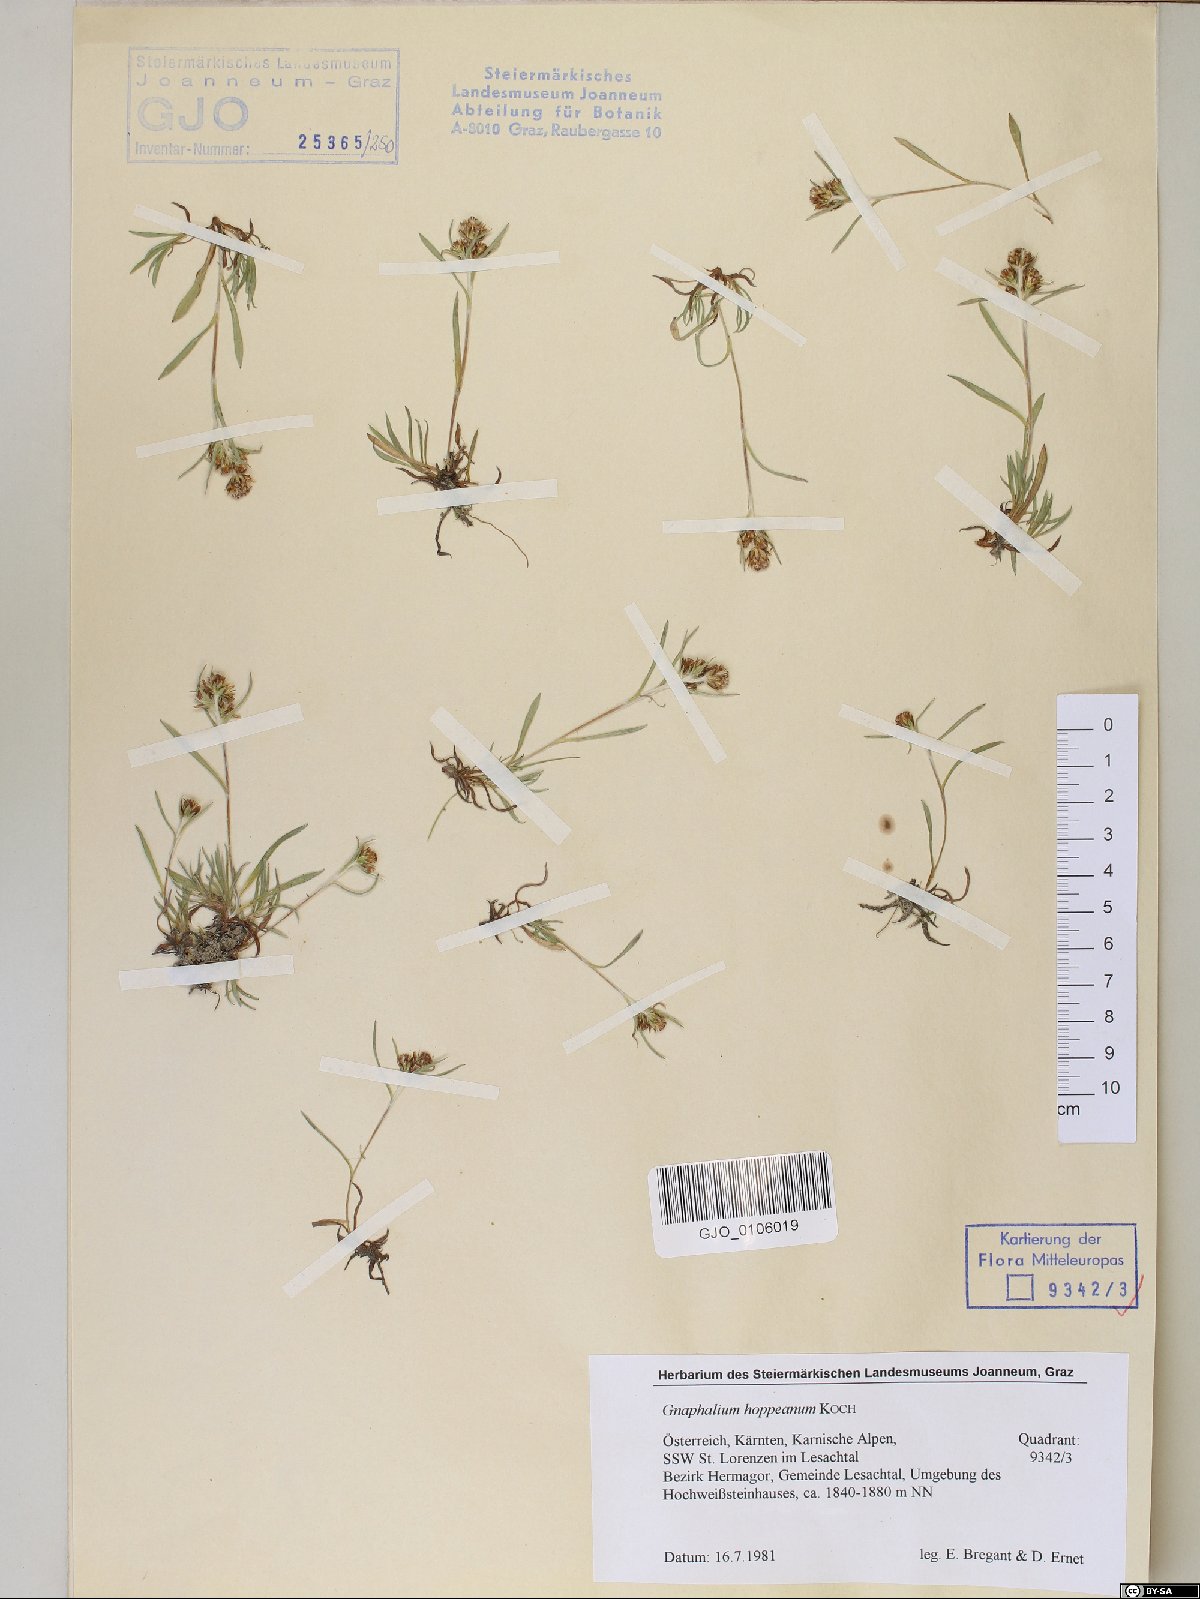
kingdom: Plantae
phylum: Tracheophyta
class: Magnoliopsida
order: Asterales
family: Asteraceae
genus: Omalotheca
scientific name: Omalotheca hoppeana
